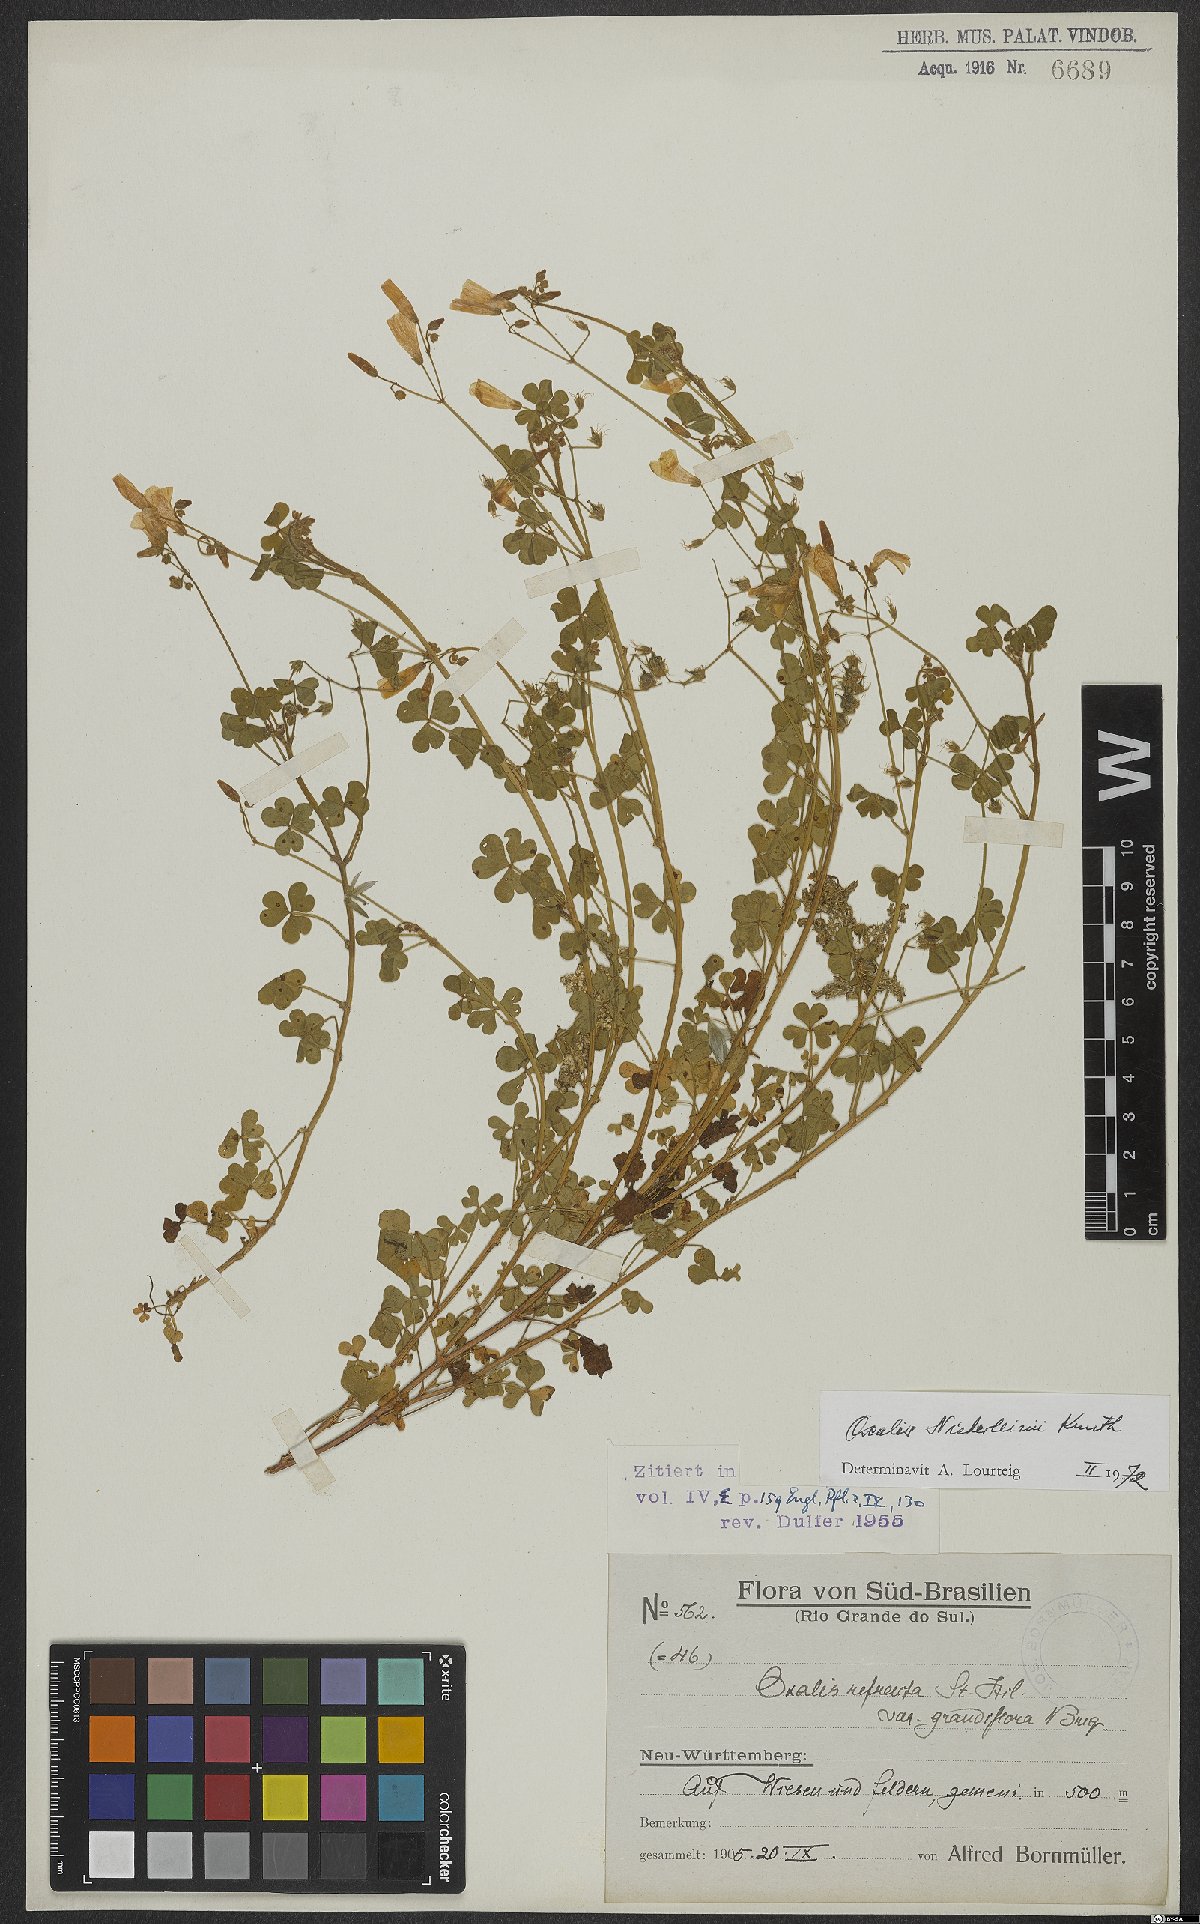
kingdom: Plantae
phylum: Tracheophyta
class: Magnoliopsida
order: Oxalidales
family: Oxalidaceae
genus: Oxalis
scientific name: Oxalis niederleinii
